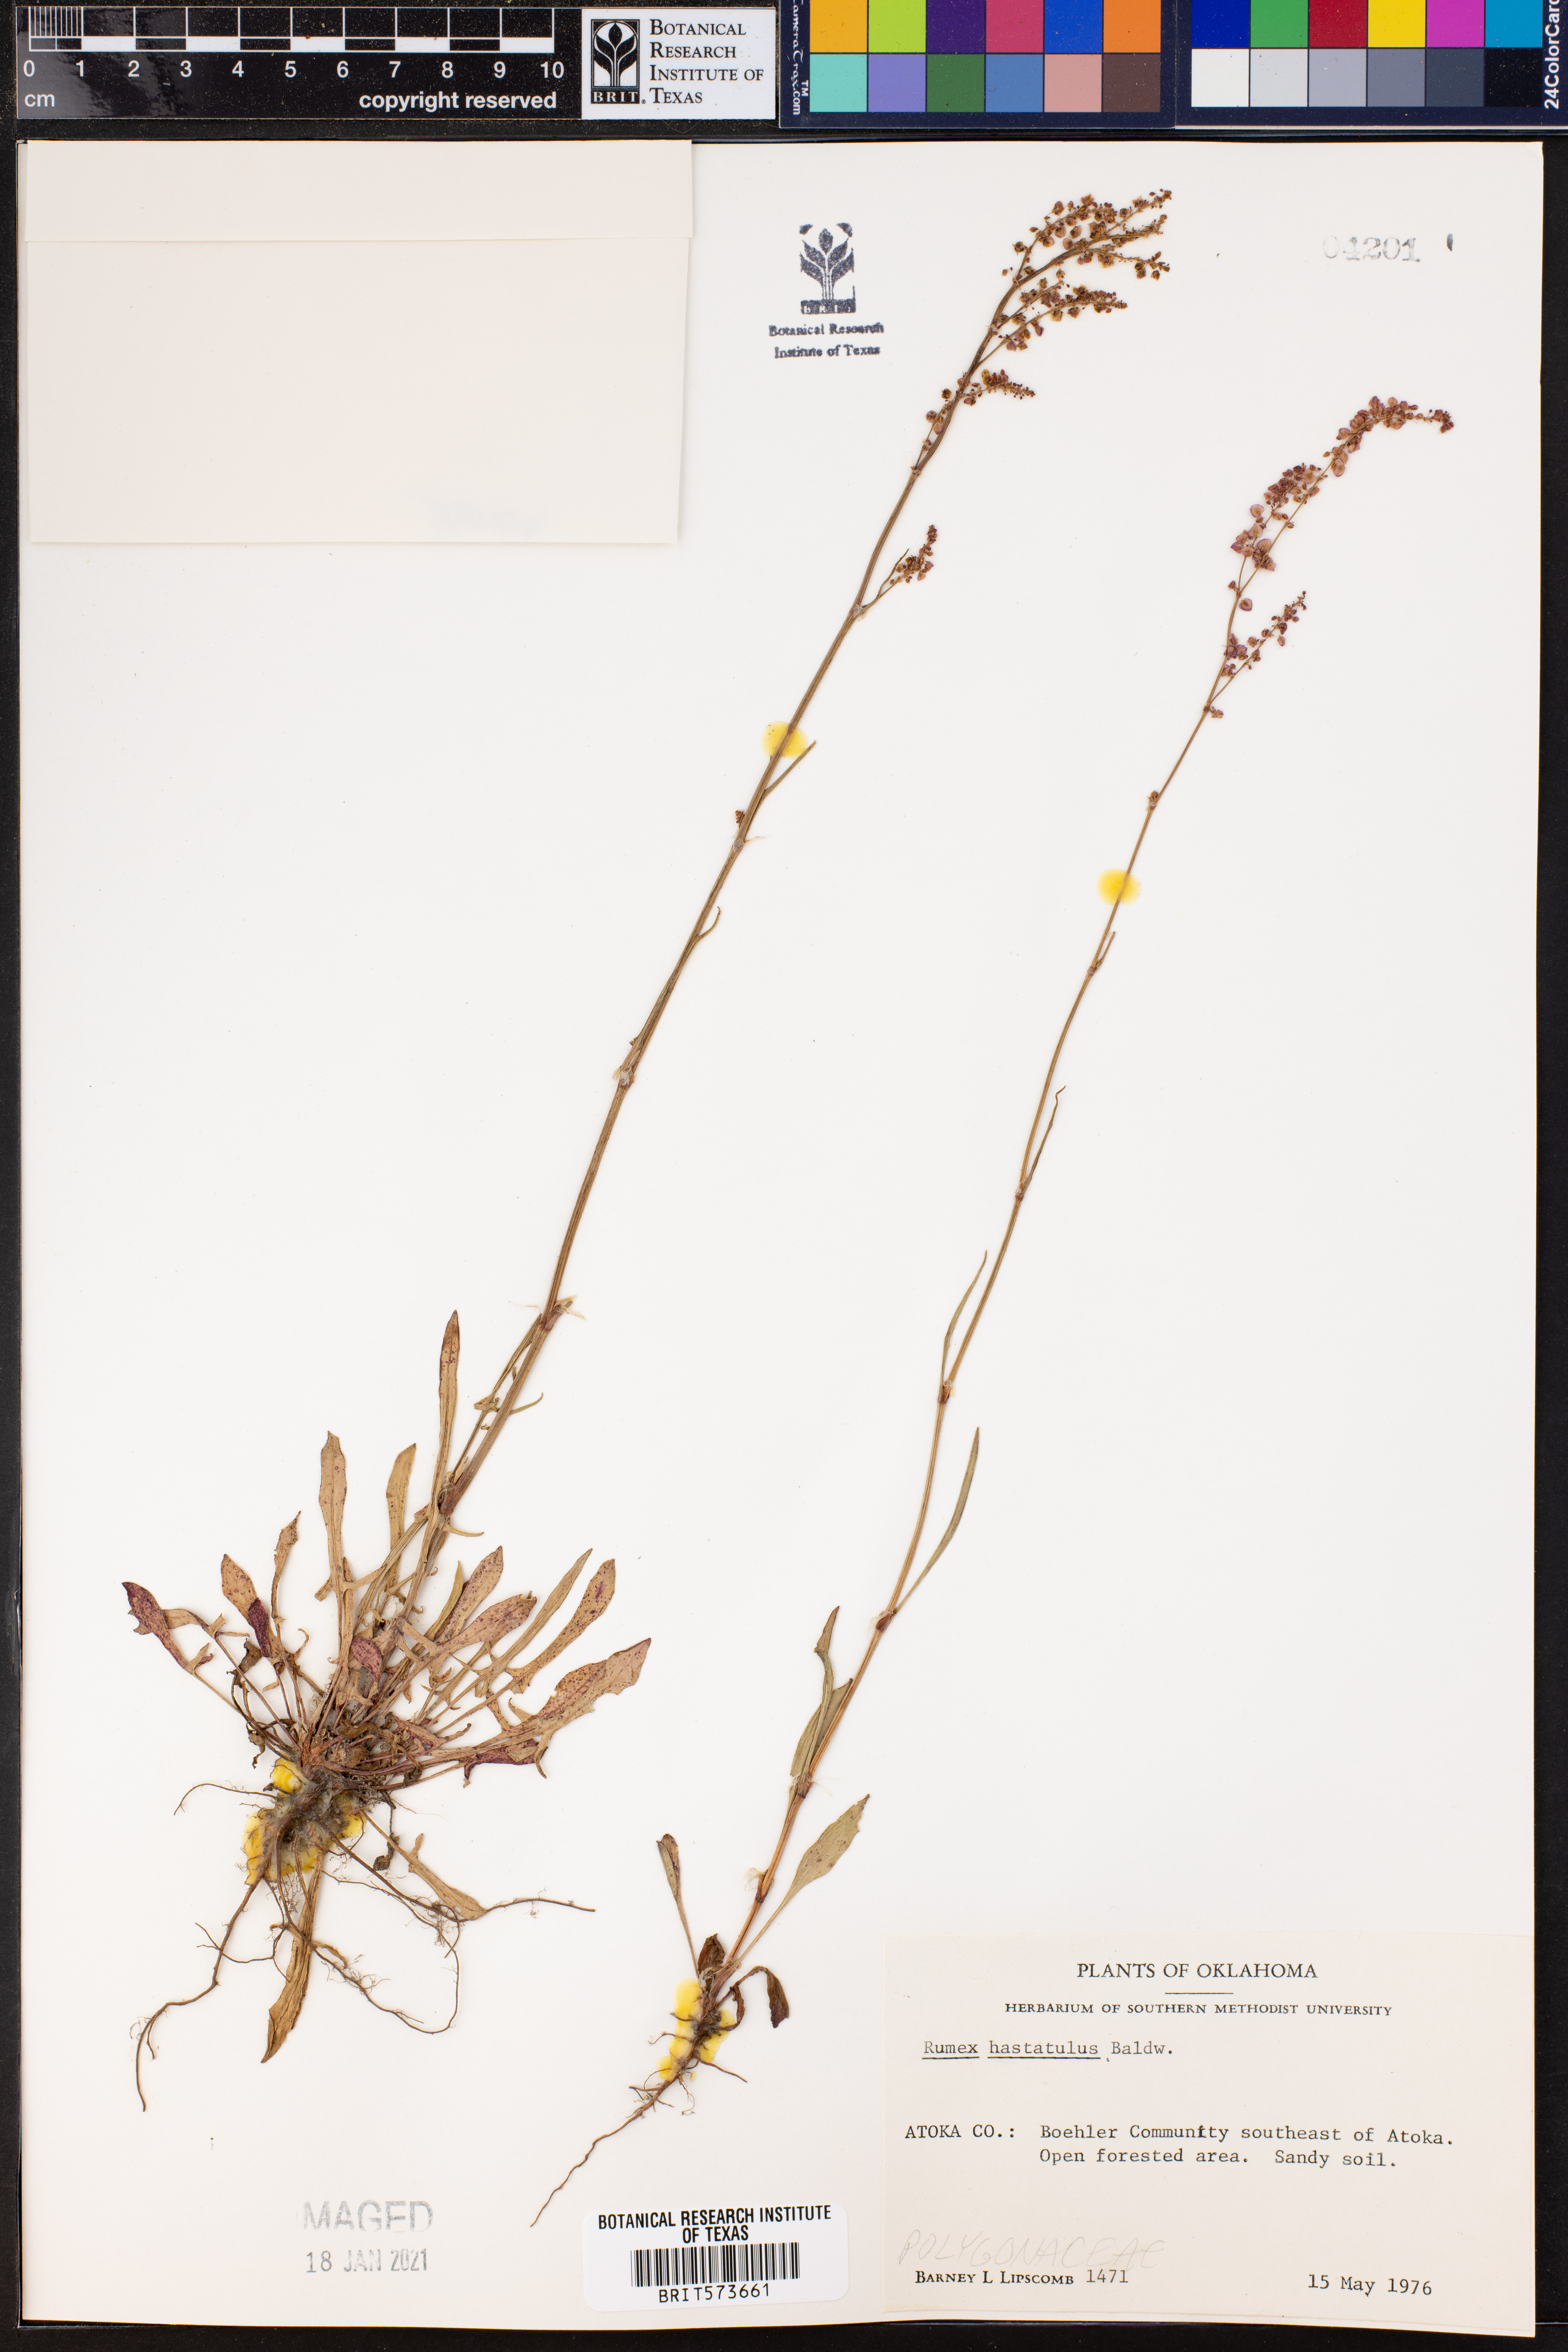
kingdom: Plantae
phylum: Tracheophyta
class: Magnoliopsida
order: Caryophyllales
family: Polygonaceae
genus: Rumex
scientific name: Rumex hastatulus
